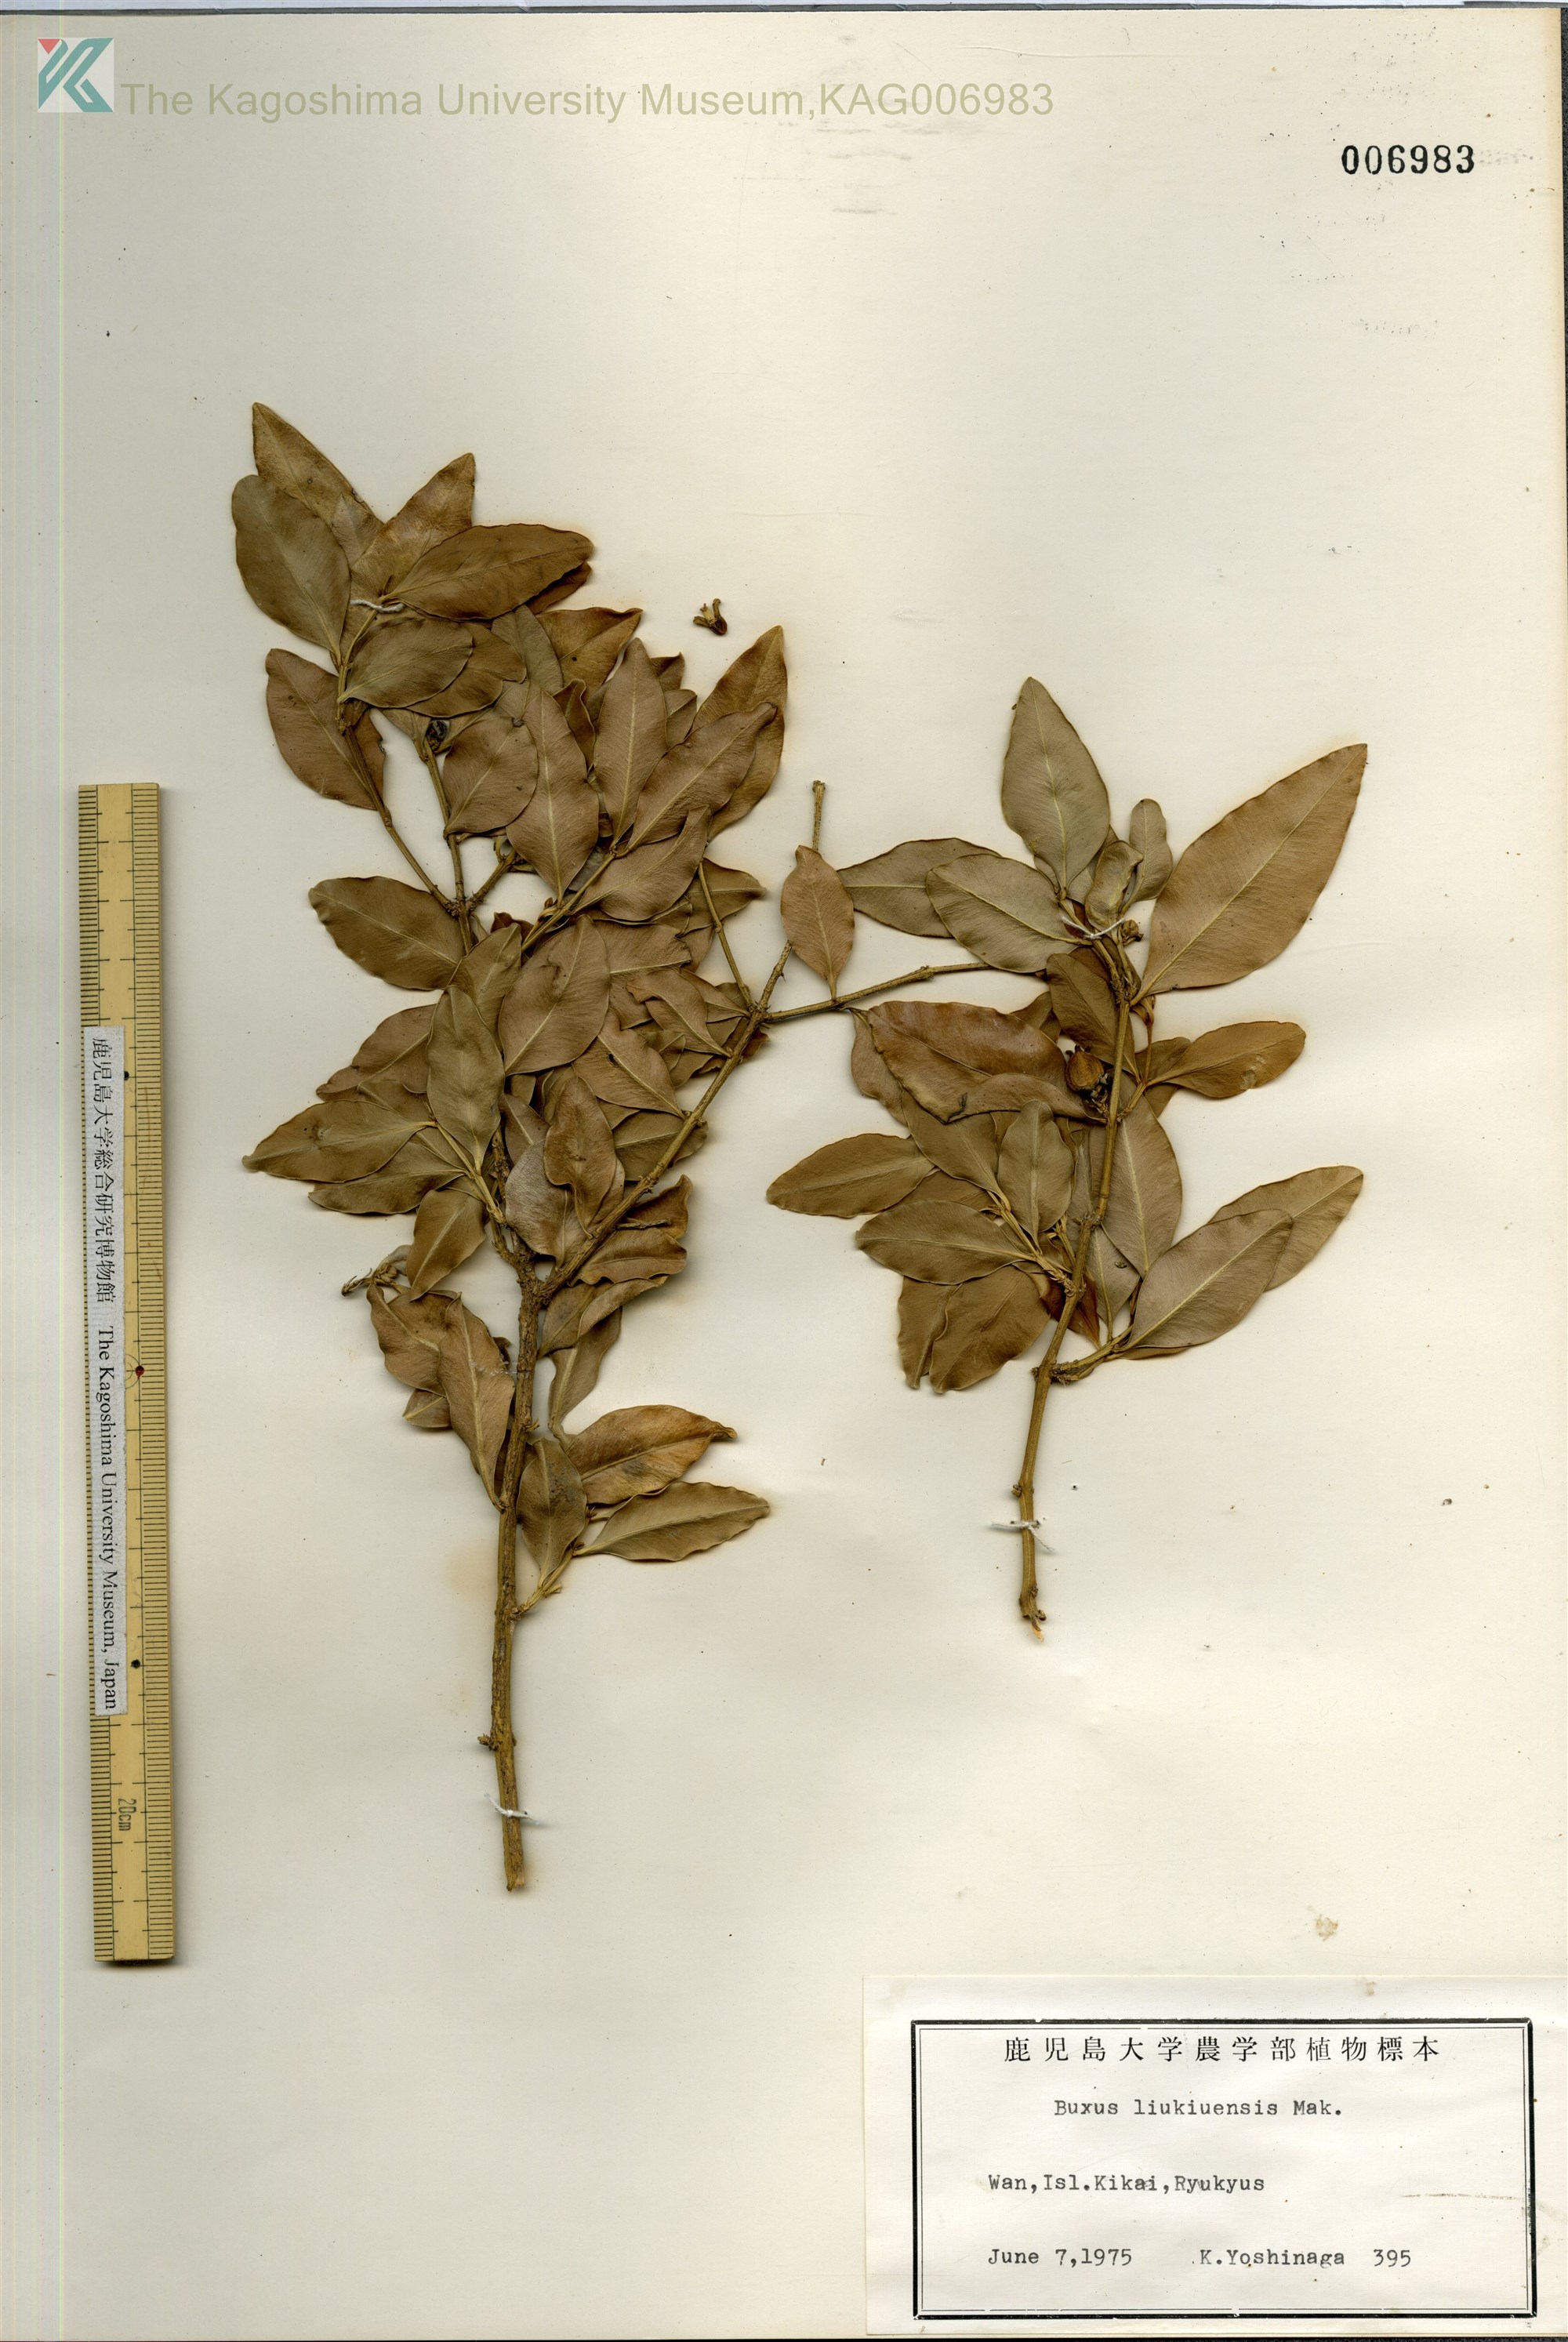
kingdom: Plantae
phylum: Tracheophyta
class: Magnoliopsida
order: Buxales
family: Buxaceae
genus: Buxus
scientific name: Buxus liukiuensis
